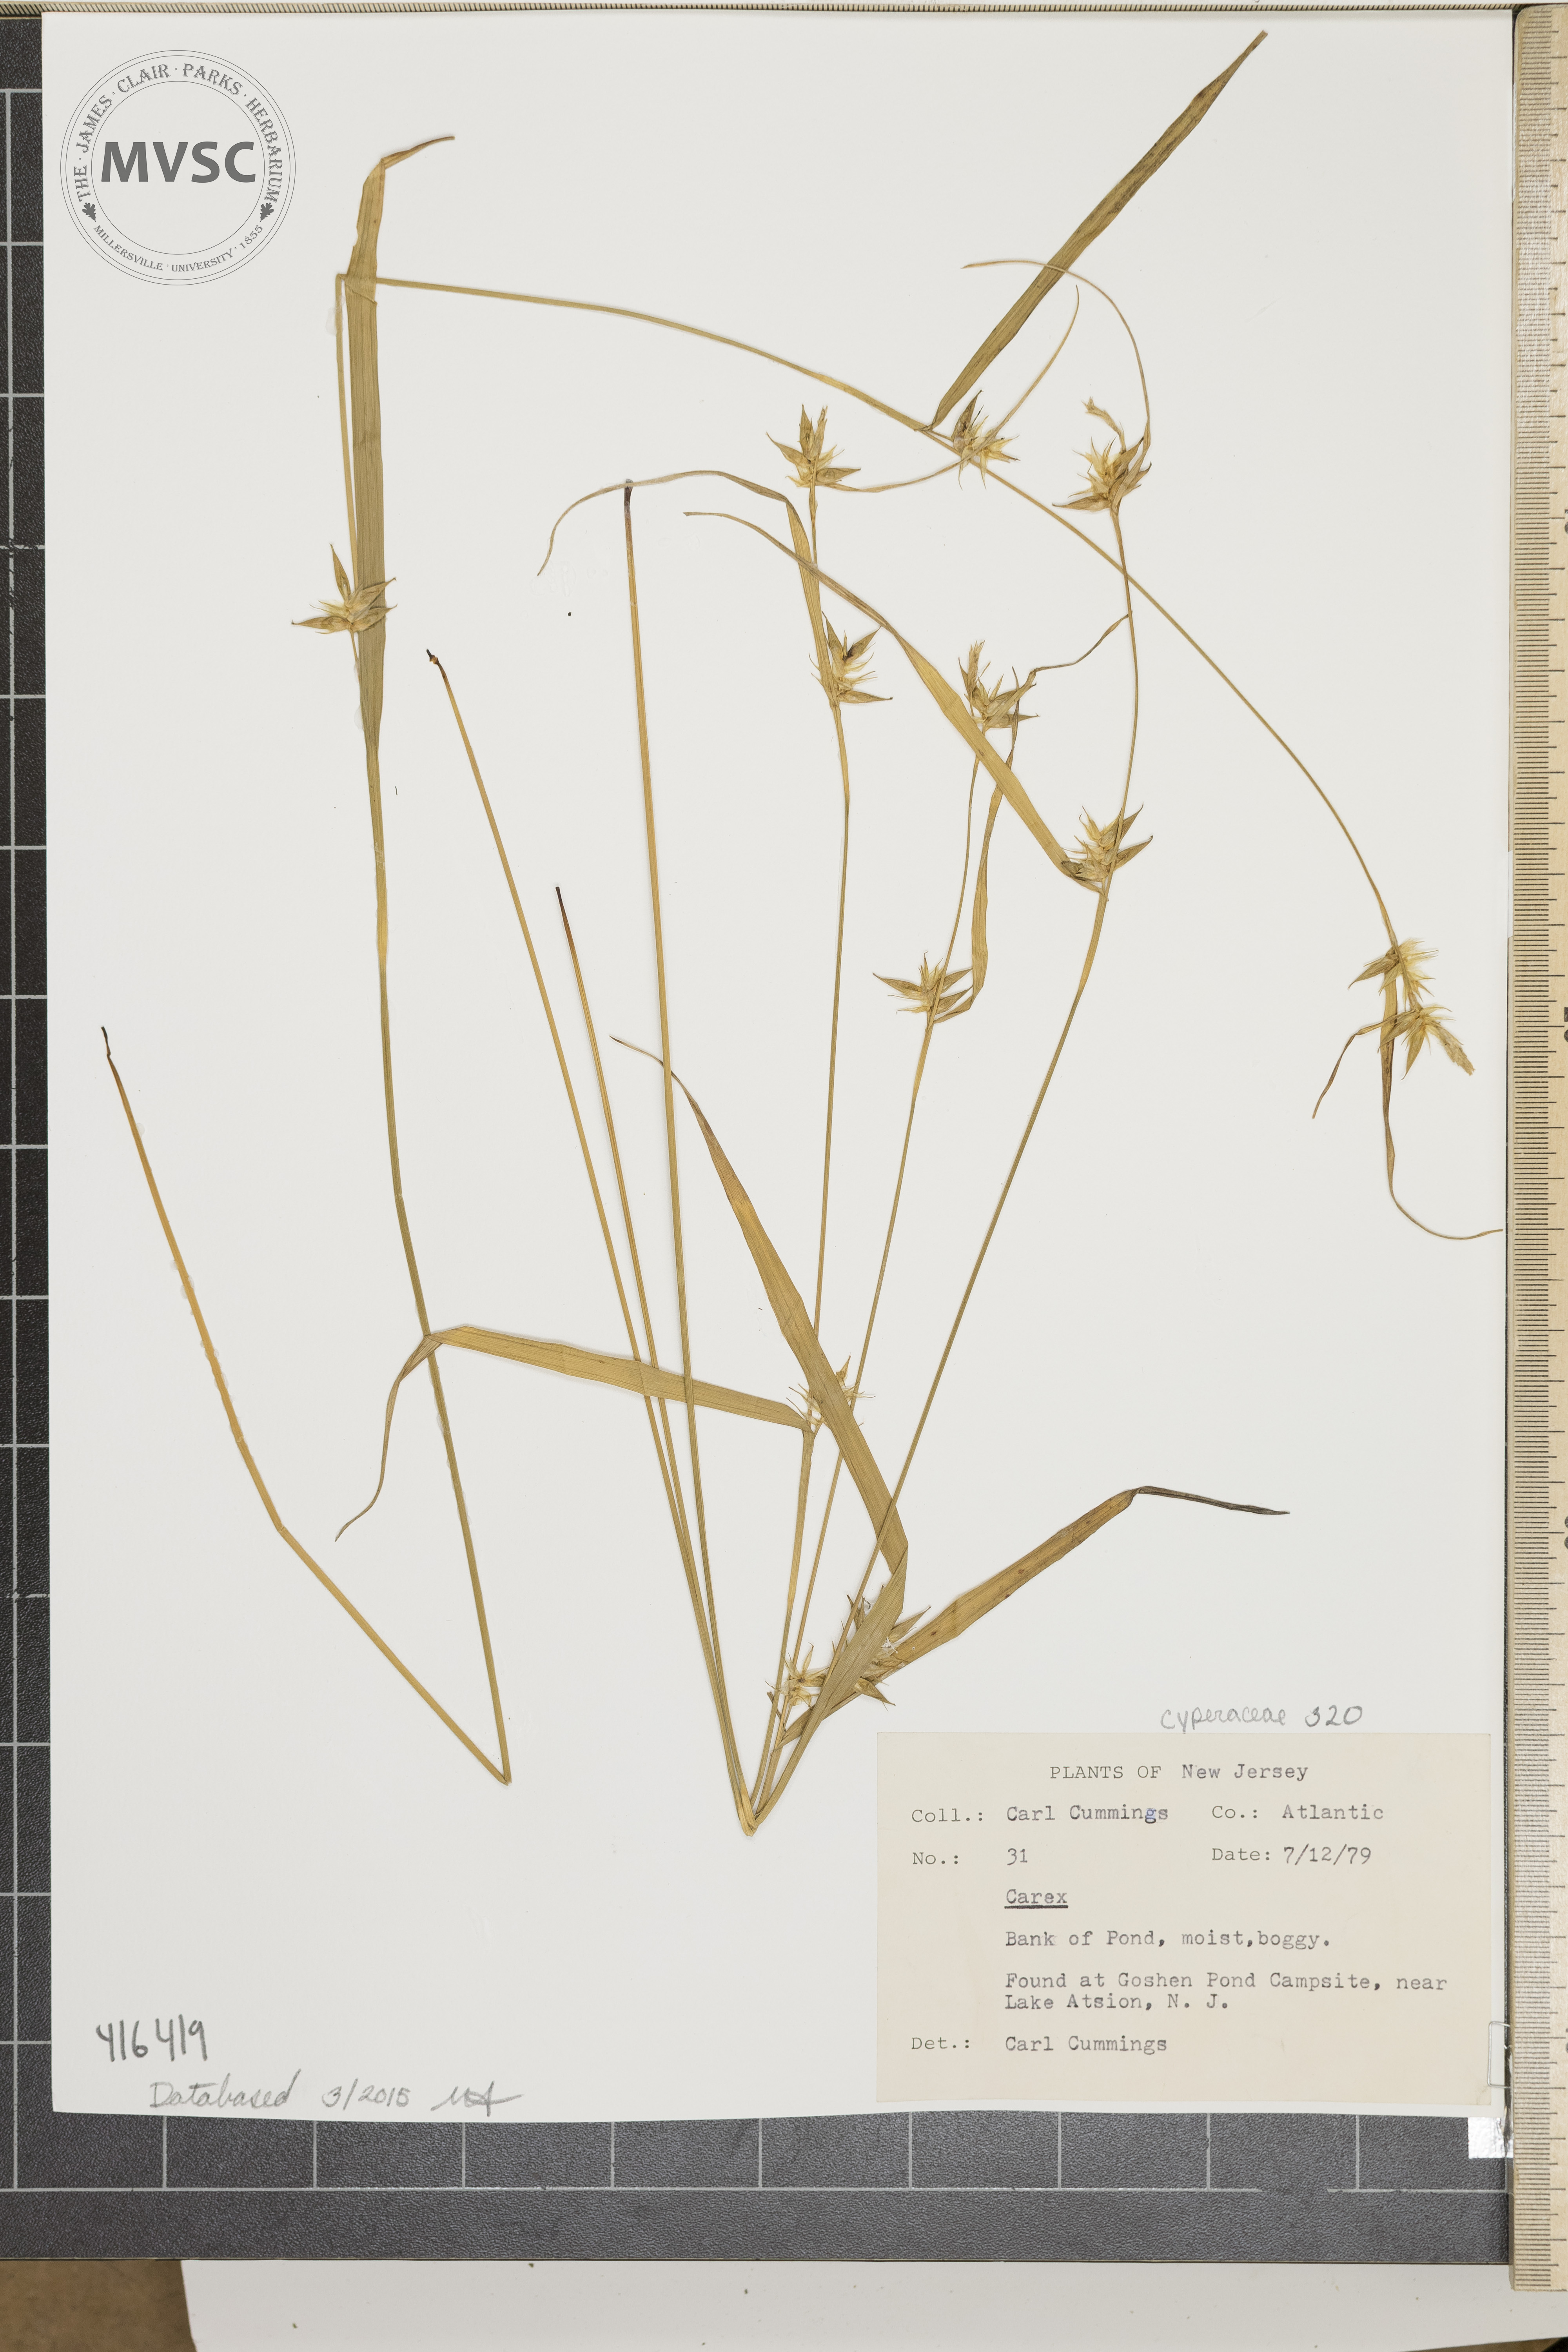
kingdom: Plantae
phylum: Tracheophyta
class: Liliopsida
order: Poales
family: Cyperaceae
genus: Carex
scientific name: Carex folliculata
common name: Sedges
